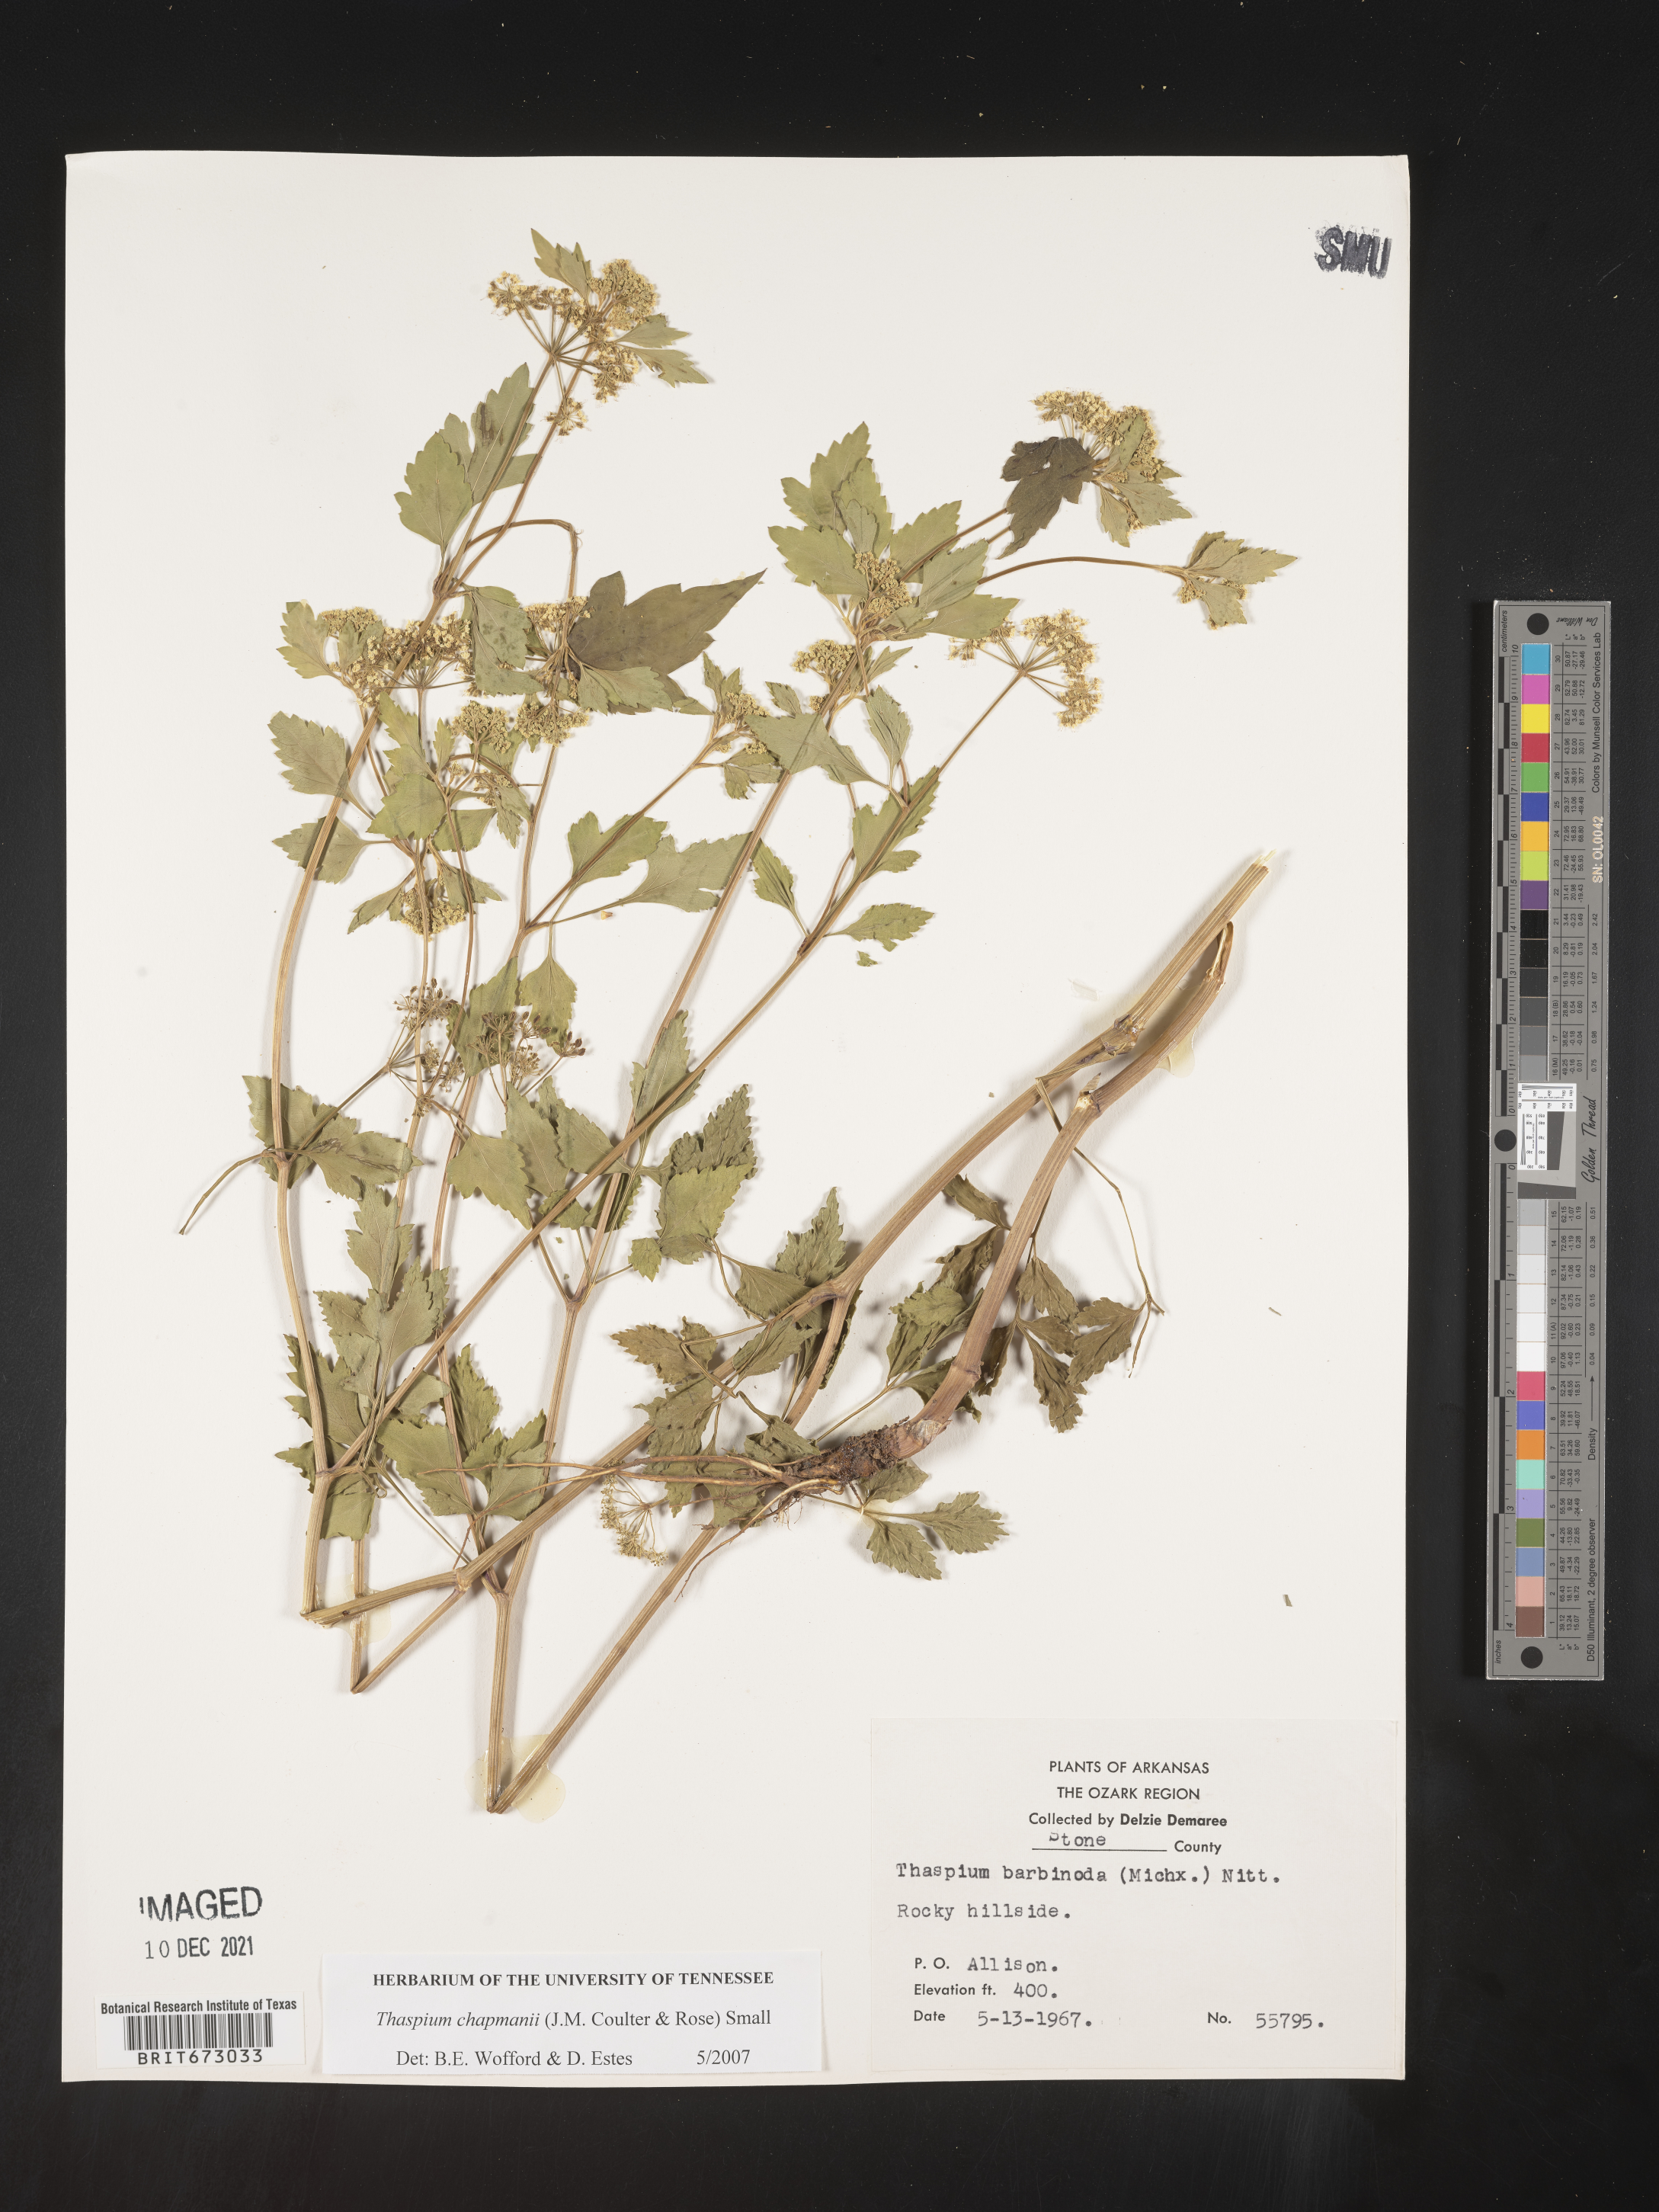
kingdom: Plantae
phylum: Tracheophyta
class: Magnoliopsida
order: Apiales
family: Apiaceae
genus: Thaspium
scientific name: Thaspium barbinode
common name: Bearded meadow-parsnip
